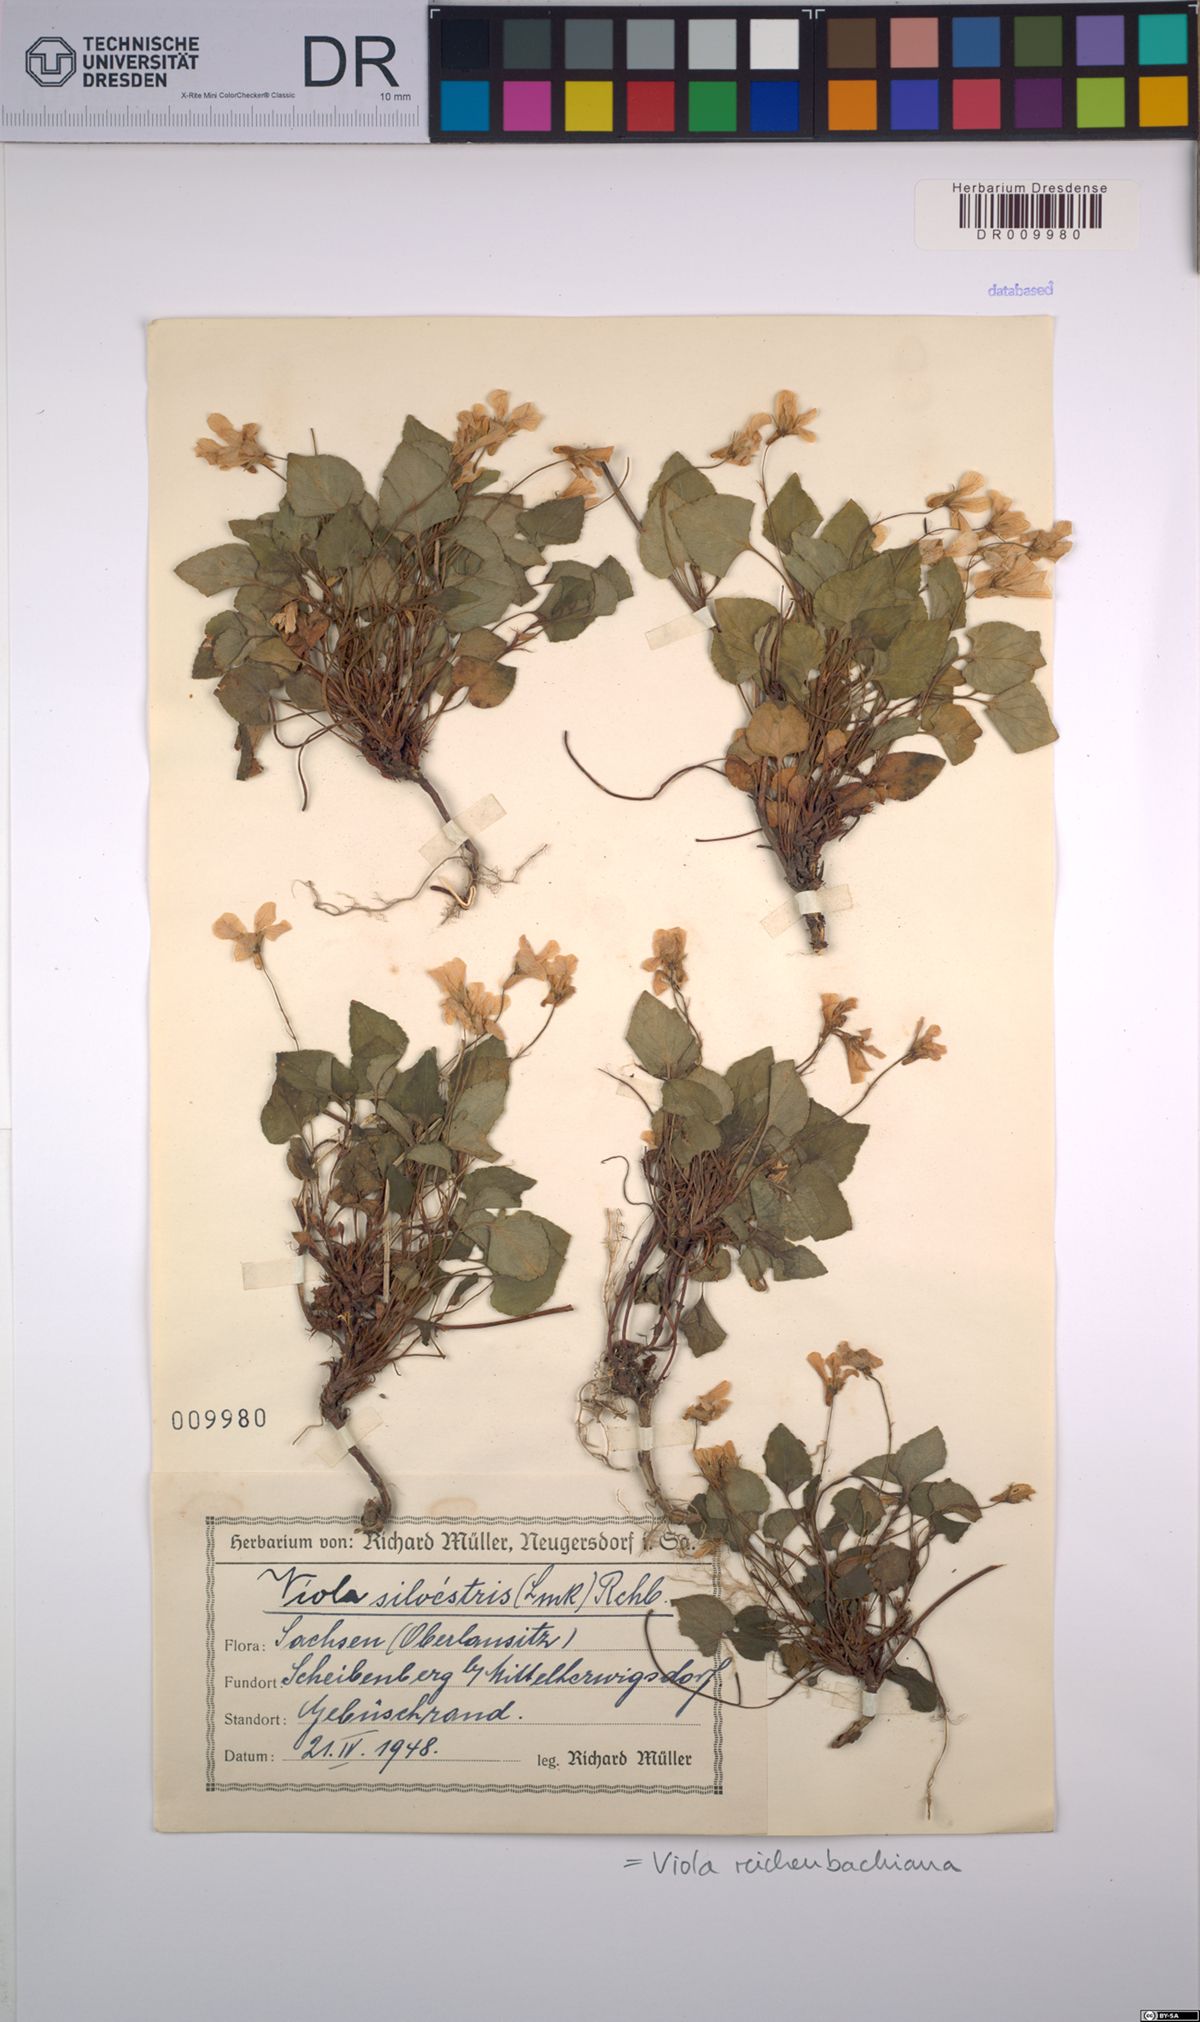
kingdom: Plantae
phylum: Tracheophyta
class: Magnoliopsida
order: Malpighiales
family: Violaceae
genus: Viola
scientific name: Viola reichenbachiana
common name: Early dog-violet
